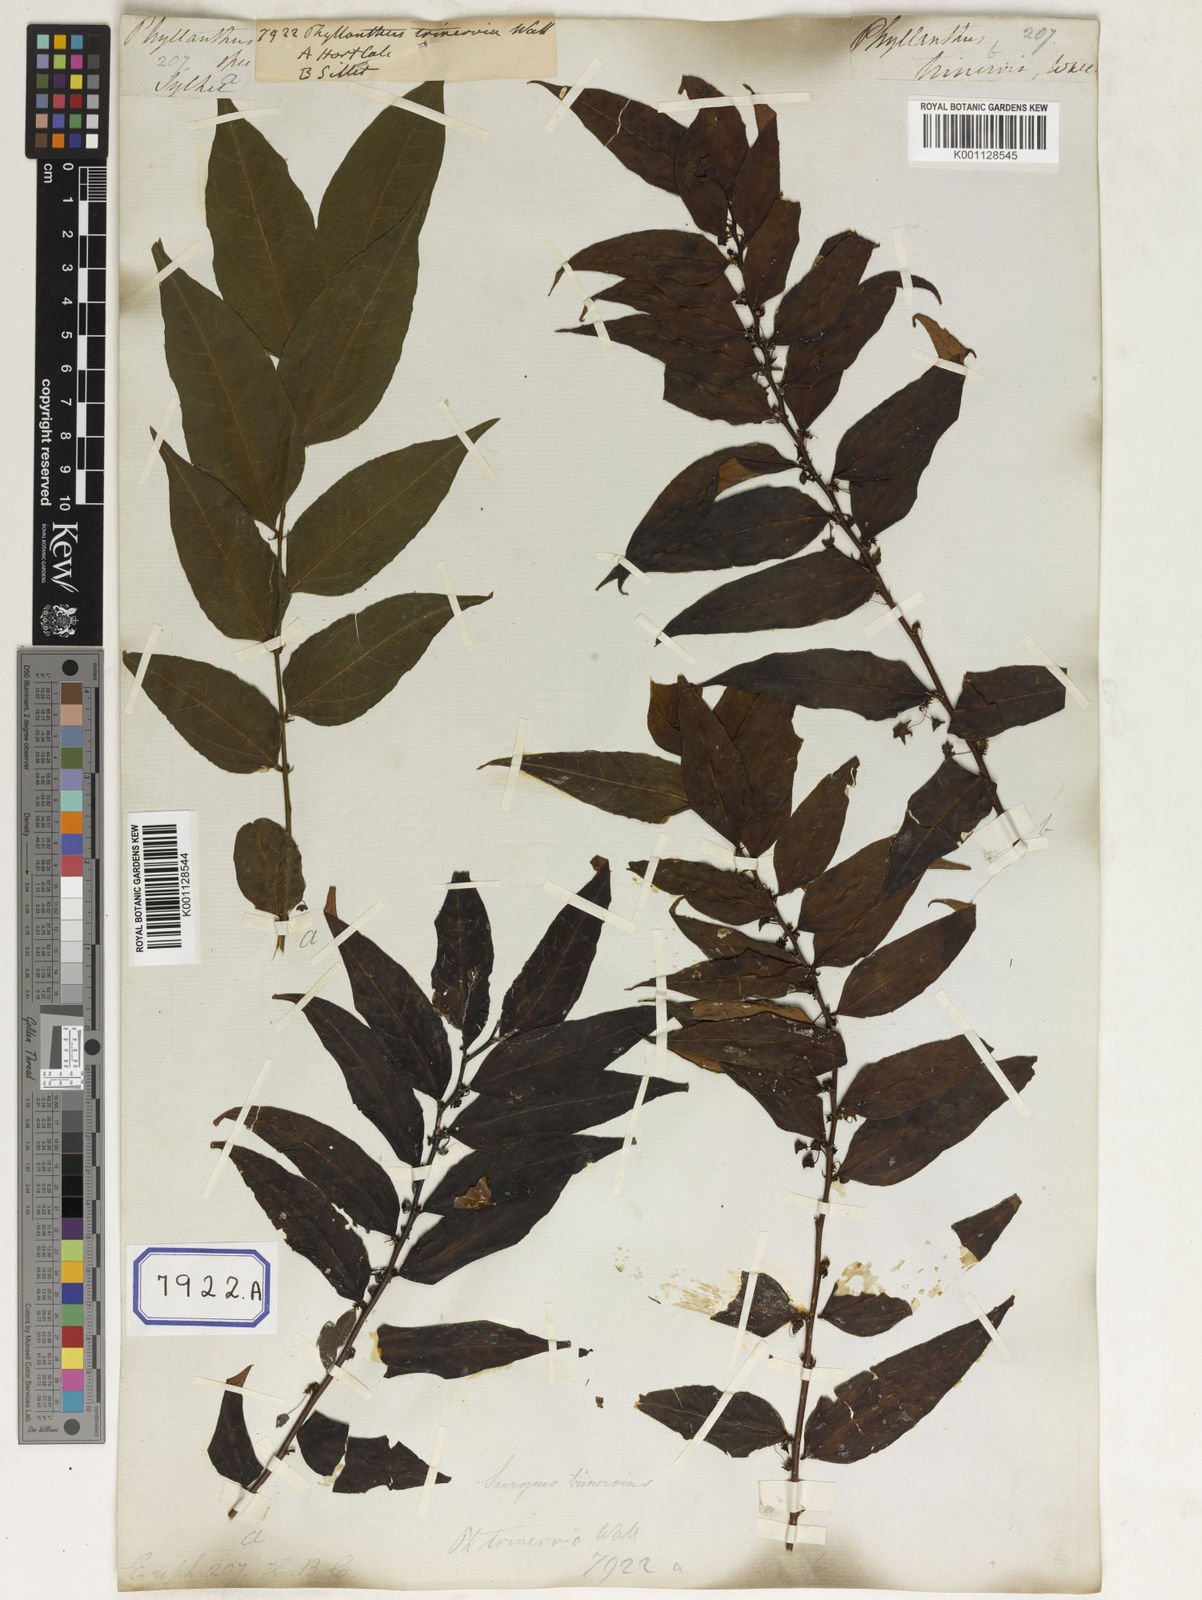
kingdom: Plantae
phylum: Tracheophyta
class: Magnoliopsida
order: Malpighiales
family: Phyllanthaceae
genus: Phyllanthus
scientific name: Phyllanthus
